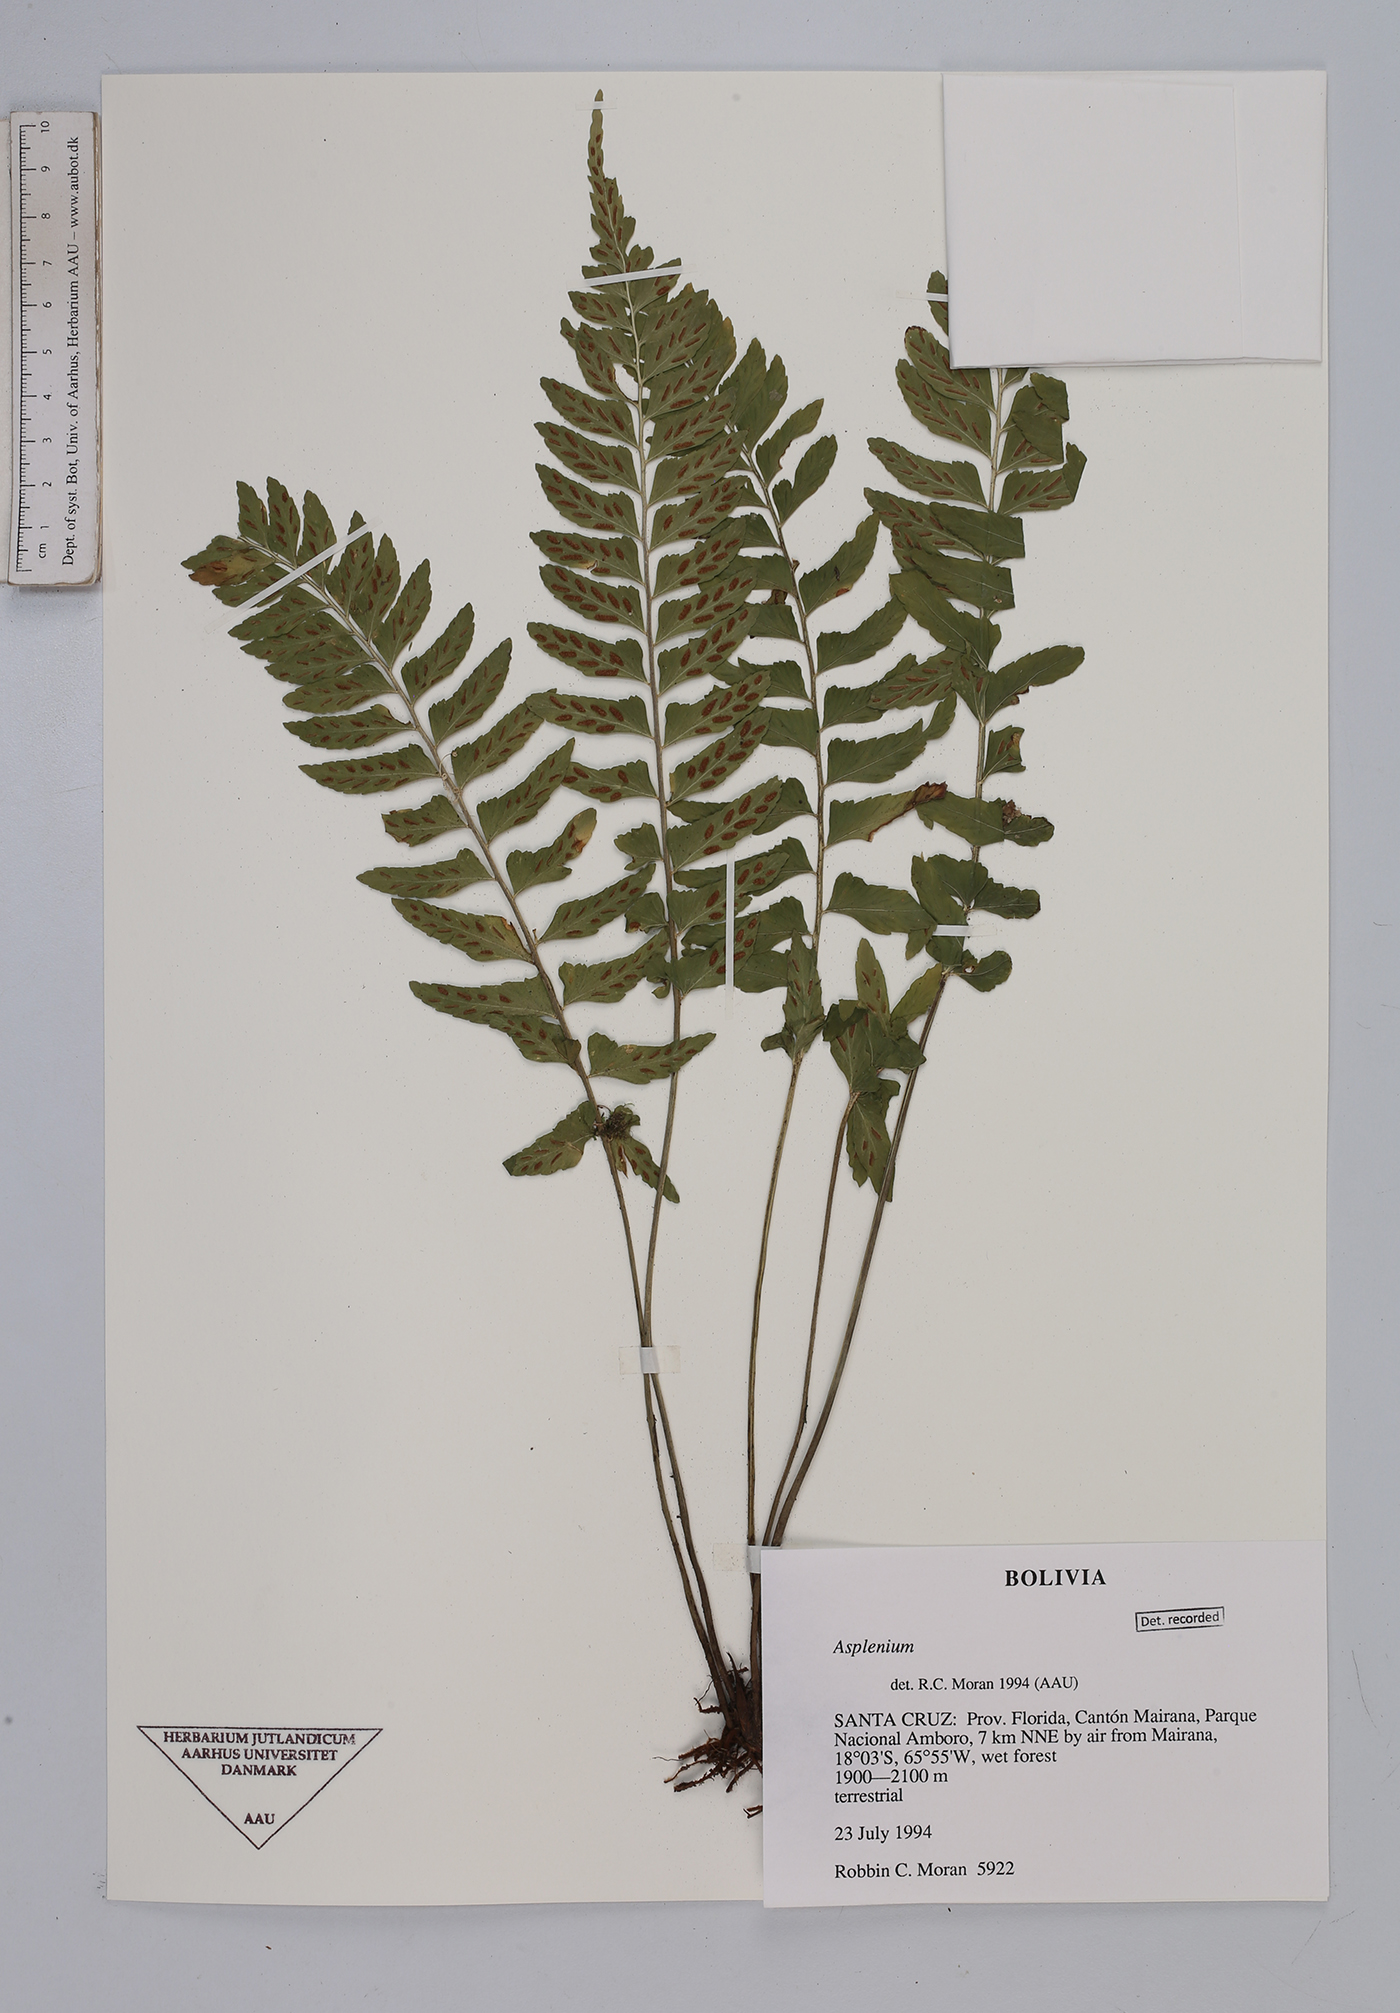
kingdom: Plantae
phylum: Tracheophyta
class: Polypodiopsida
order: Polypodiales
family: Aspleniaceae
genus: Asplenium
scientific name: Asplenium
